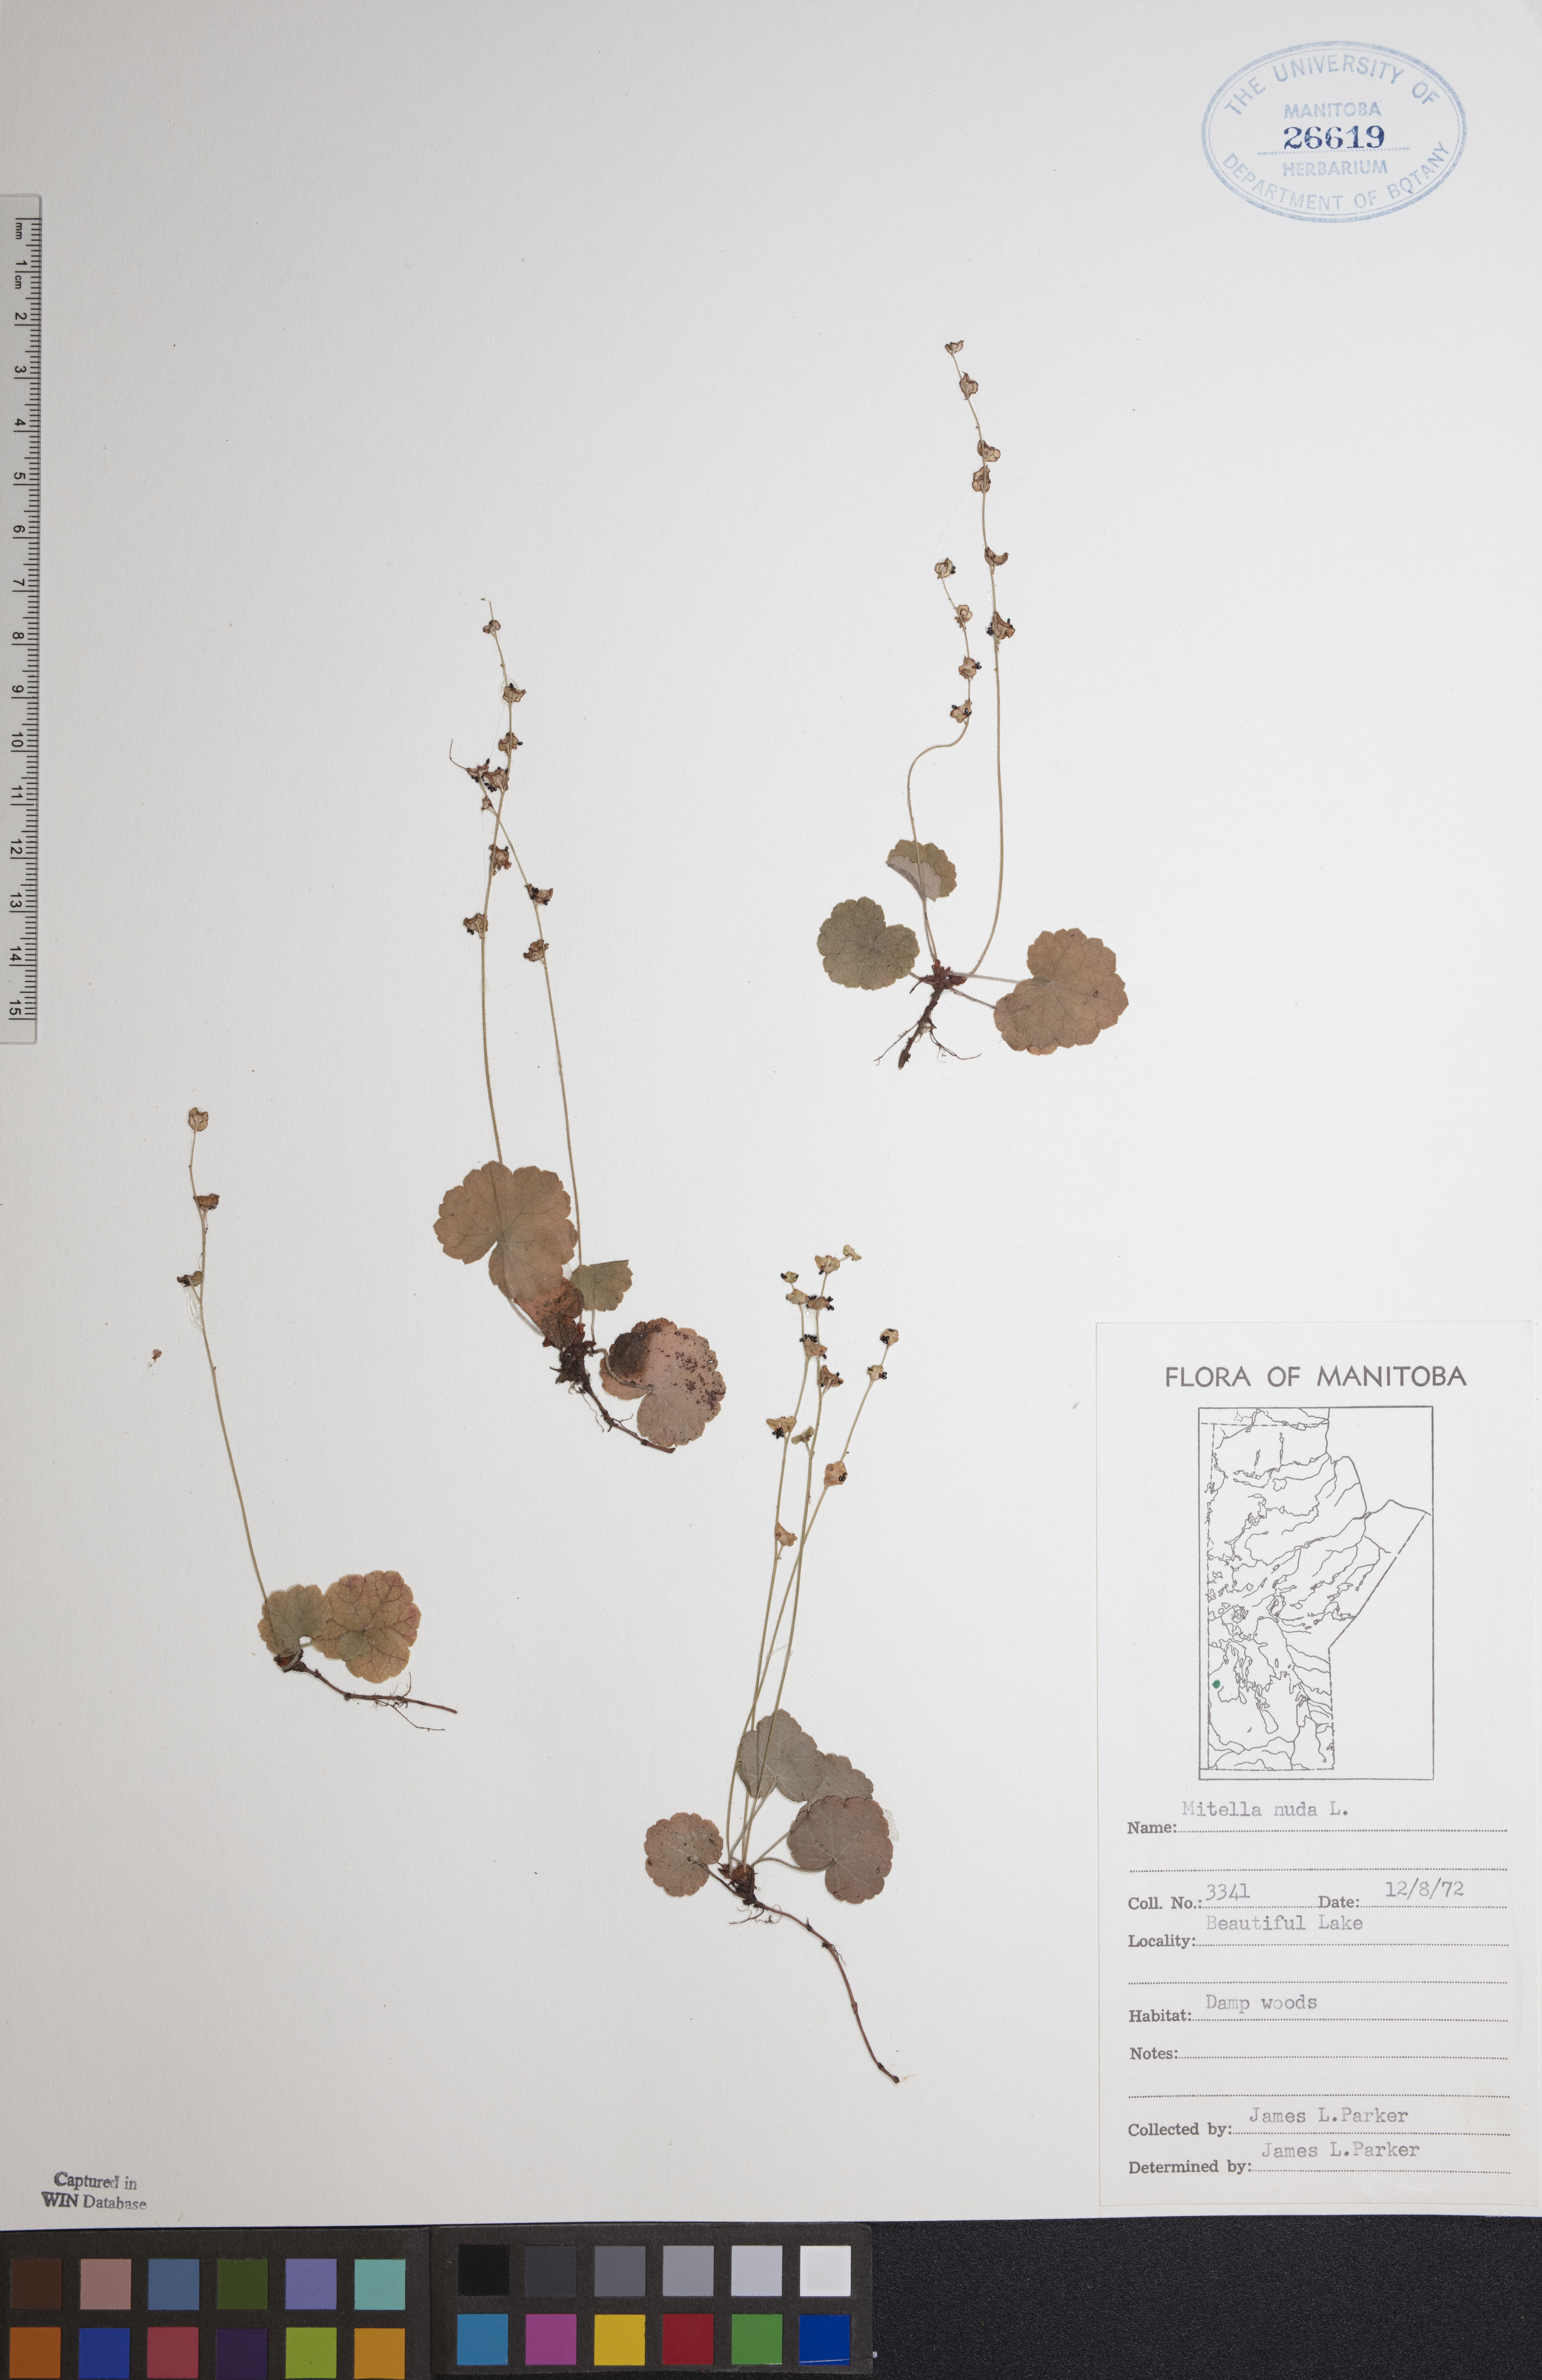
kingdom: Plantae
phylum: Tracheophyta
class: Magnoliopsida
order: Saxifragales
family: Saxifragaceae
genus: Mitella
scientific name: Mitella nuda
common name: Bare-stemmed bishop's-cap
